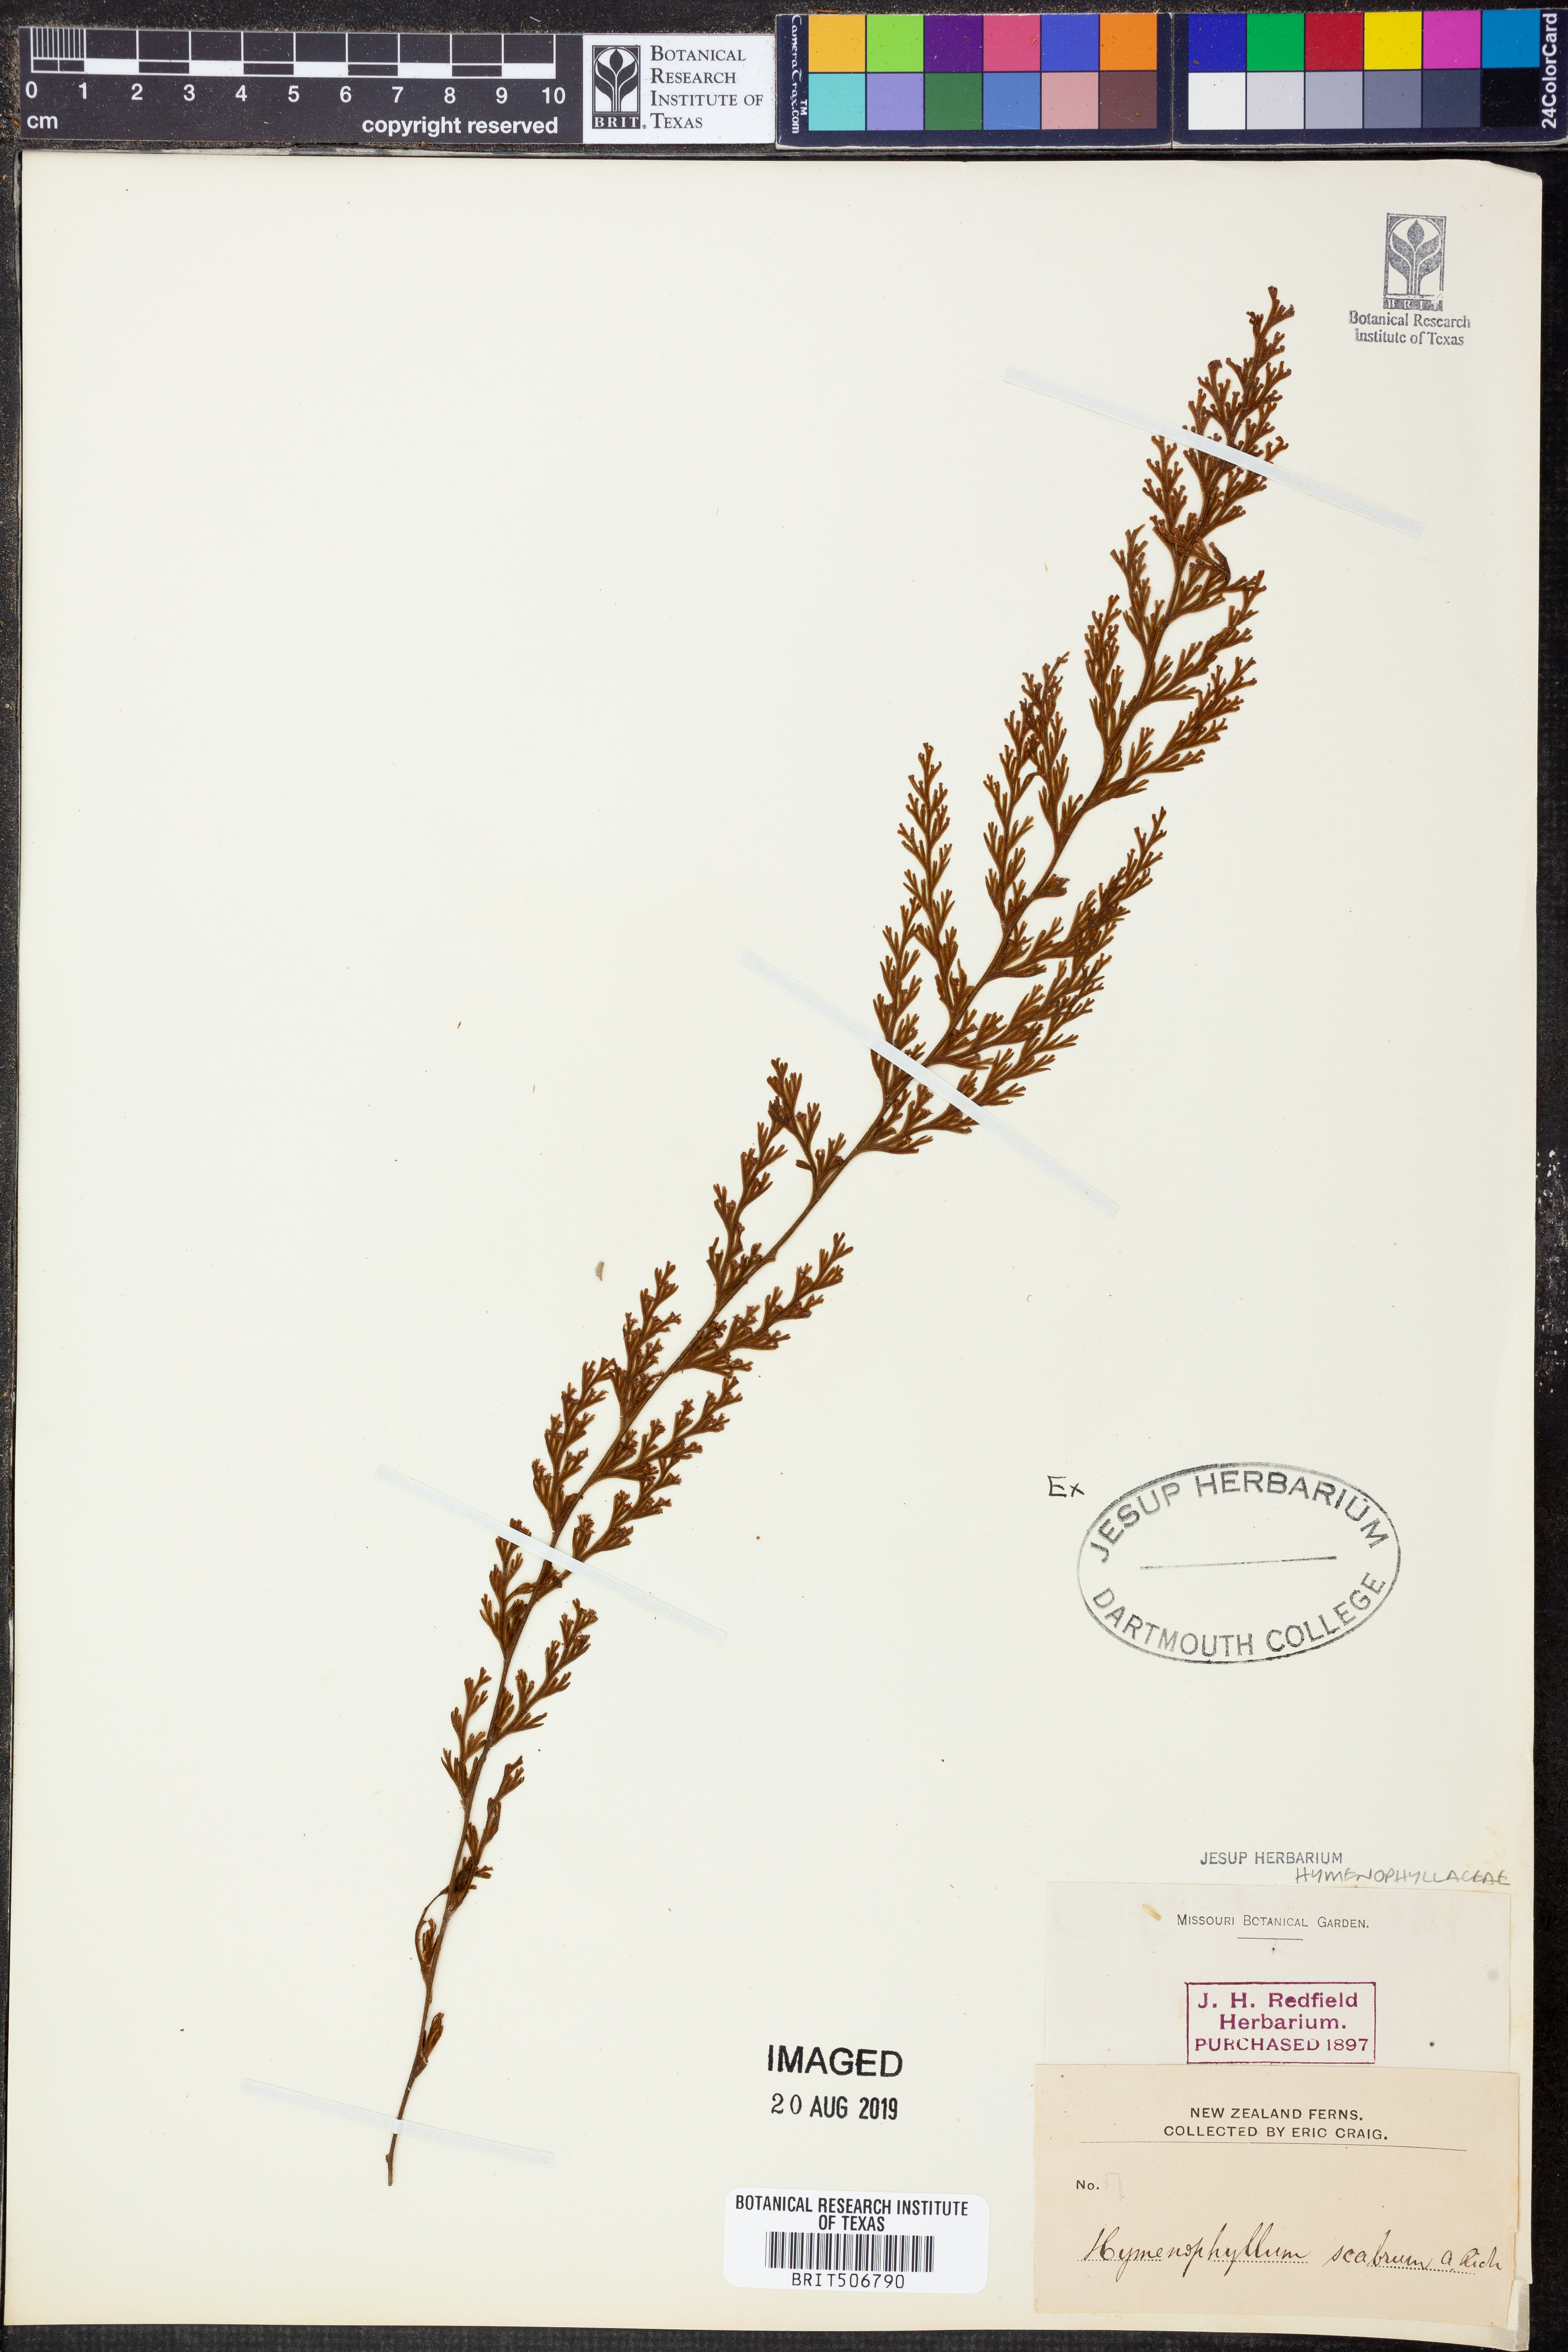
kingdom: Plantae
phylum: Tracheophyta
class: Polypodiopsida
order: Hymenophyllales
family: Hymenophyllaceae
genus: Hymenophyllum
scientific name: Hymenophyllum scabrum
